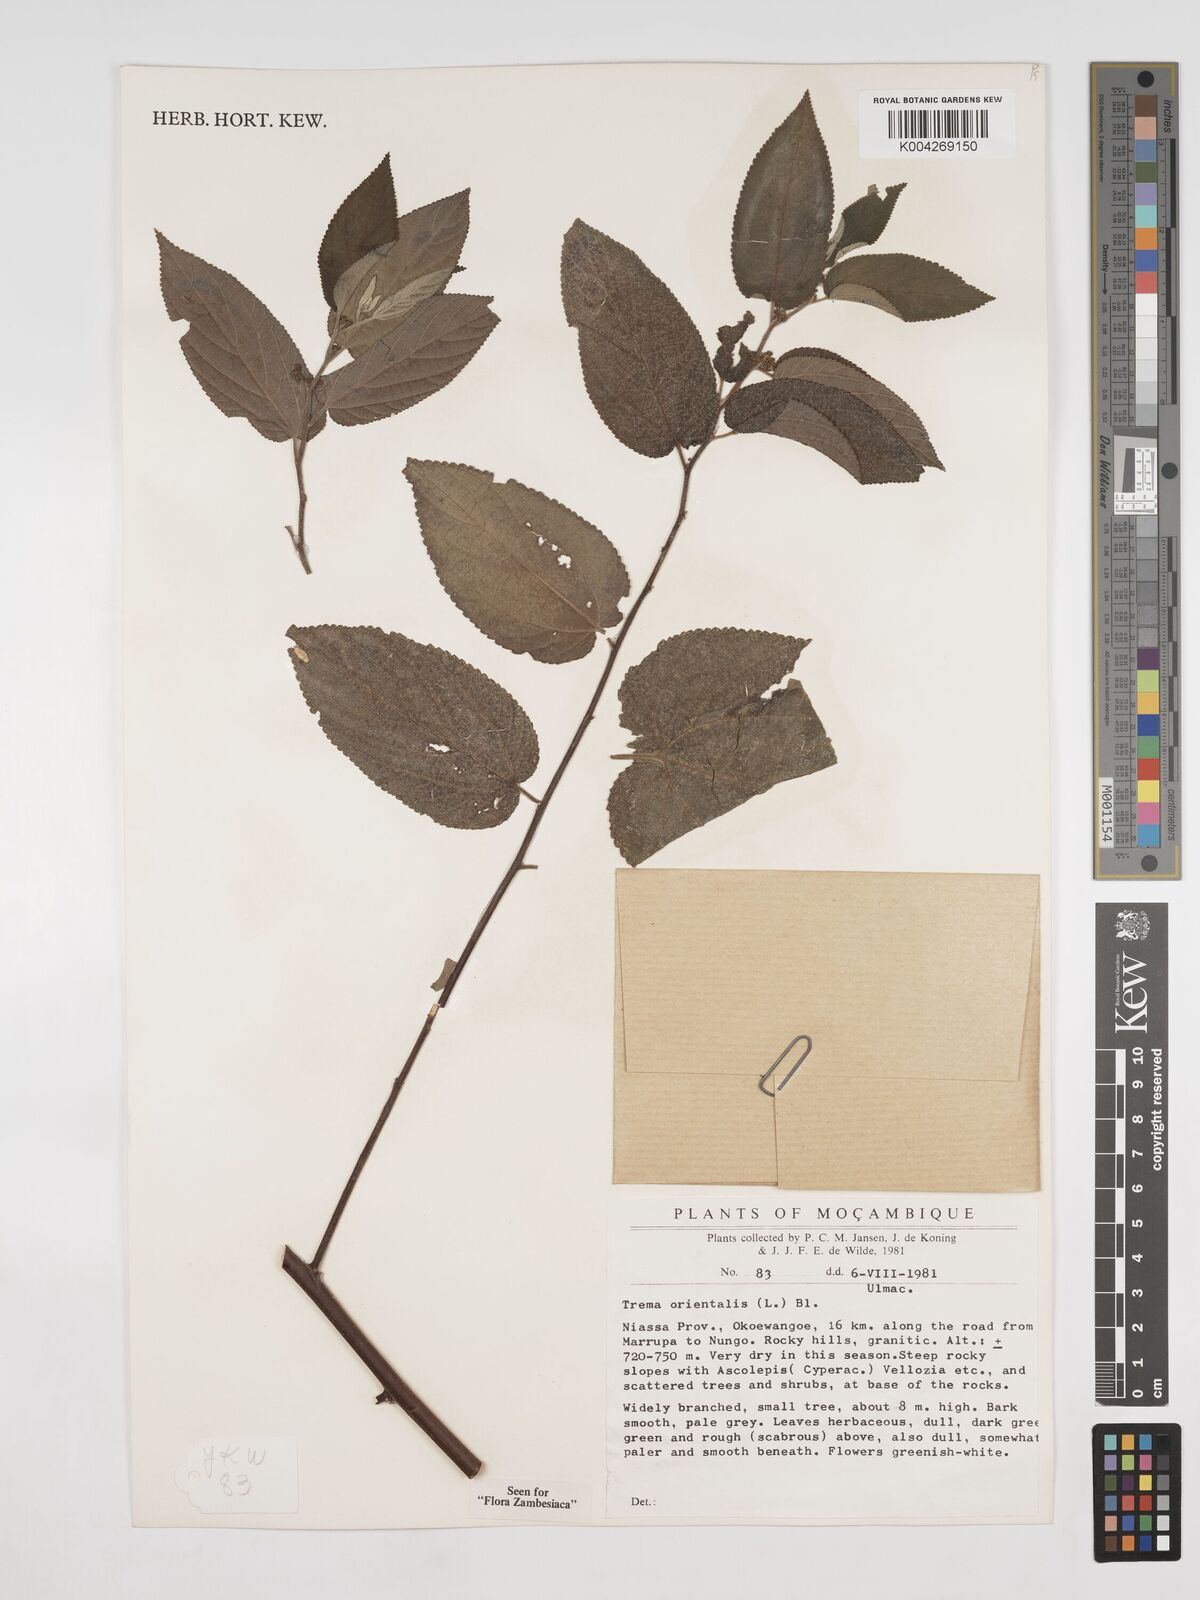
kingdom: Plantae
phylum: Tracheophyta
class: Magnoliopsida
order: Rosales
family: Cannabaceae
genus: Trema
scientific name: Trema orientale
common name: Indian charcoal tree
